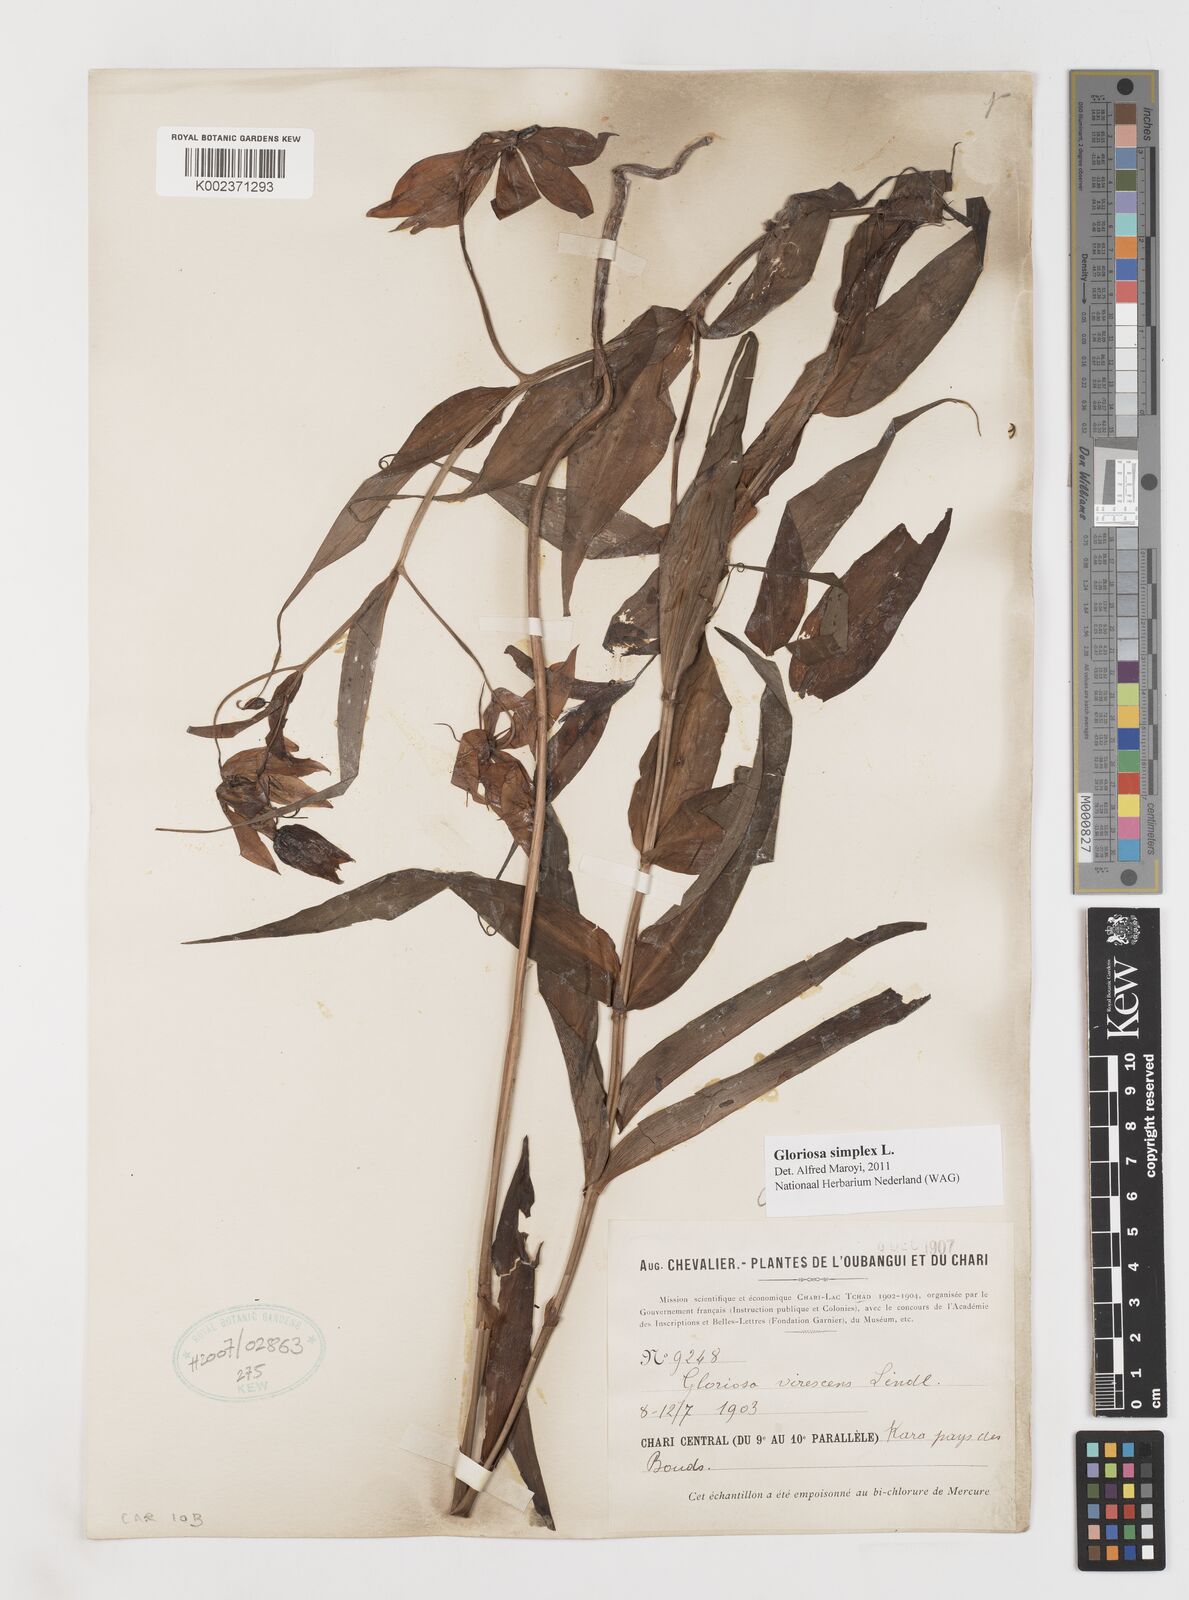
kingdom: Plantae
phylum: Tracheophyta
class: Liliopsida
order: Liliales
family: Colchicaceae
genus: Gloriosa
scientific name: Gloriosa simplex
